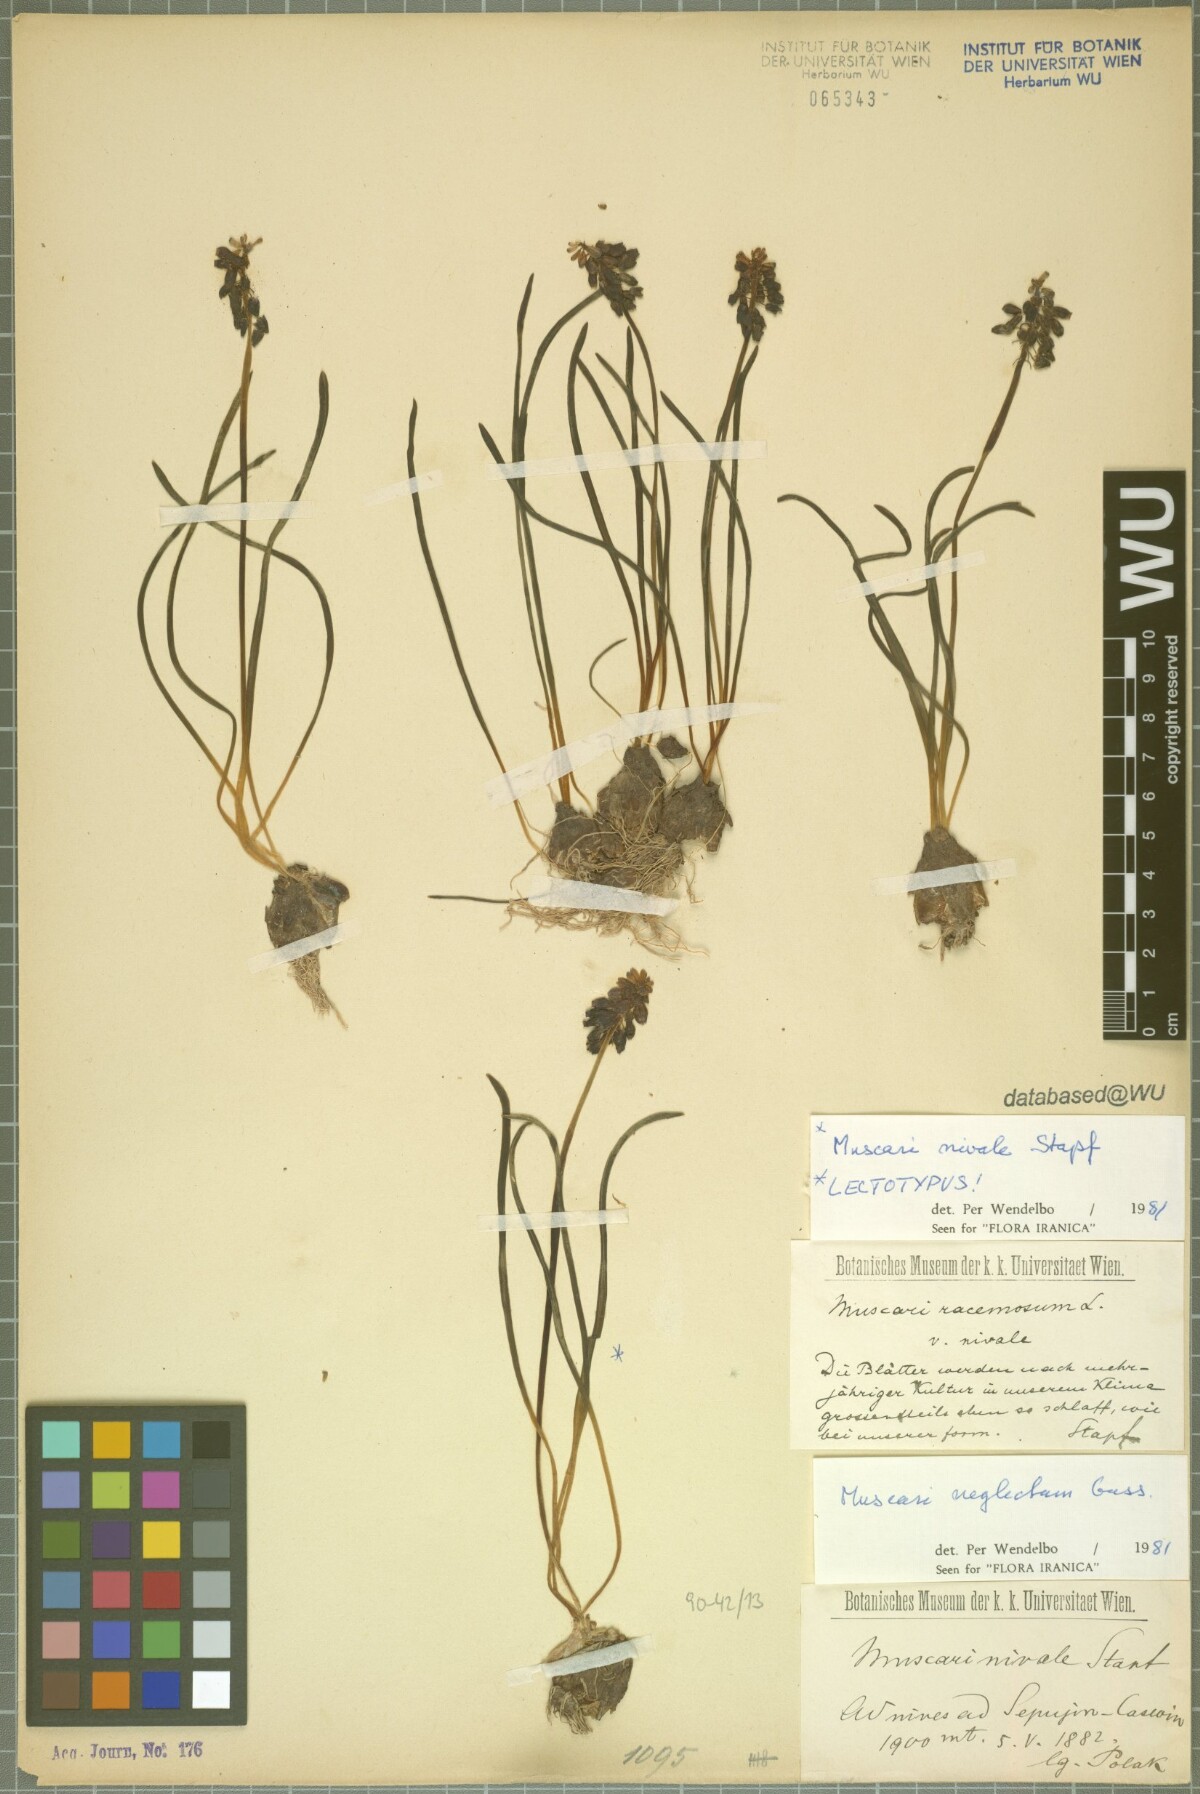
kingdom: Plantae
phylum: Tracheophyta
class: Liliopsida
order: Asparagales
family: Asparagaceae
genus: Muscari
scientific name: Muscari neglectum
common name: Grape-hyacinth
